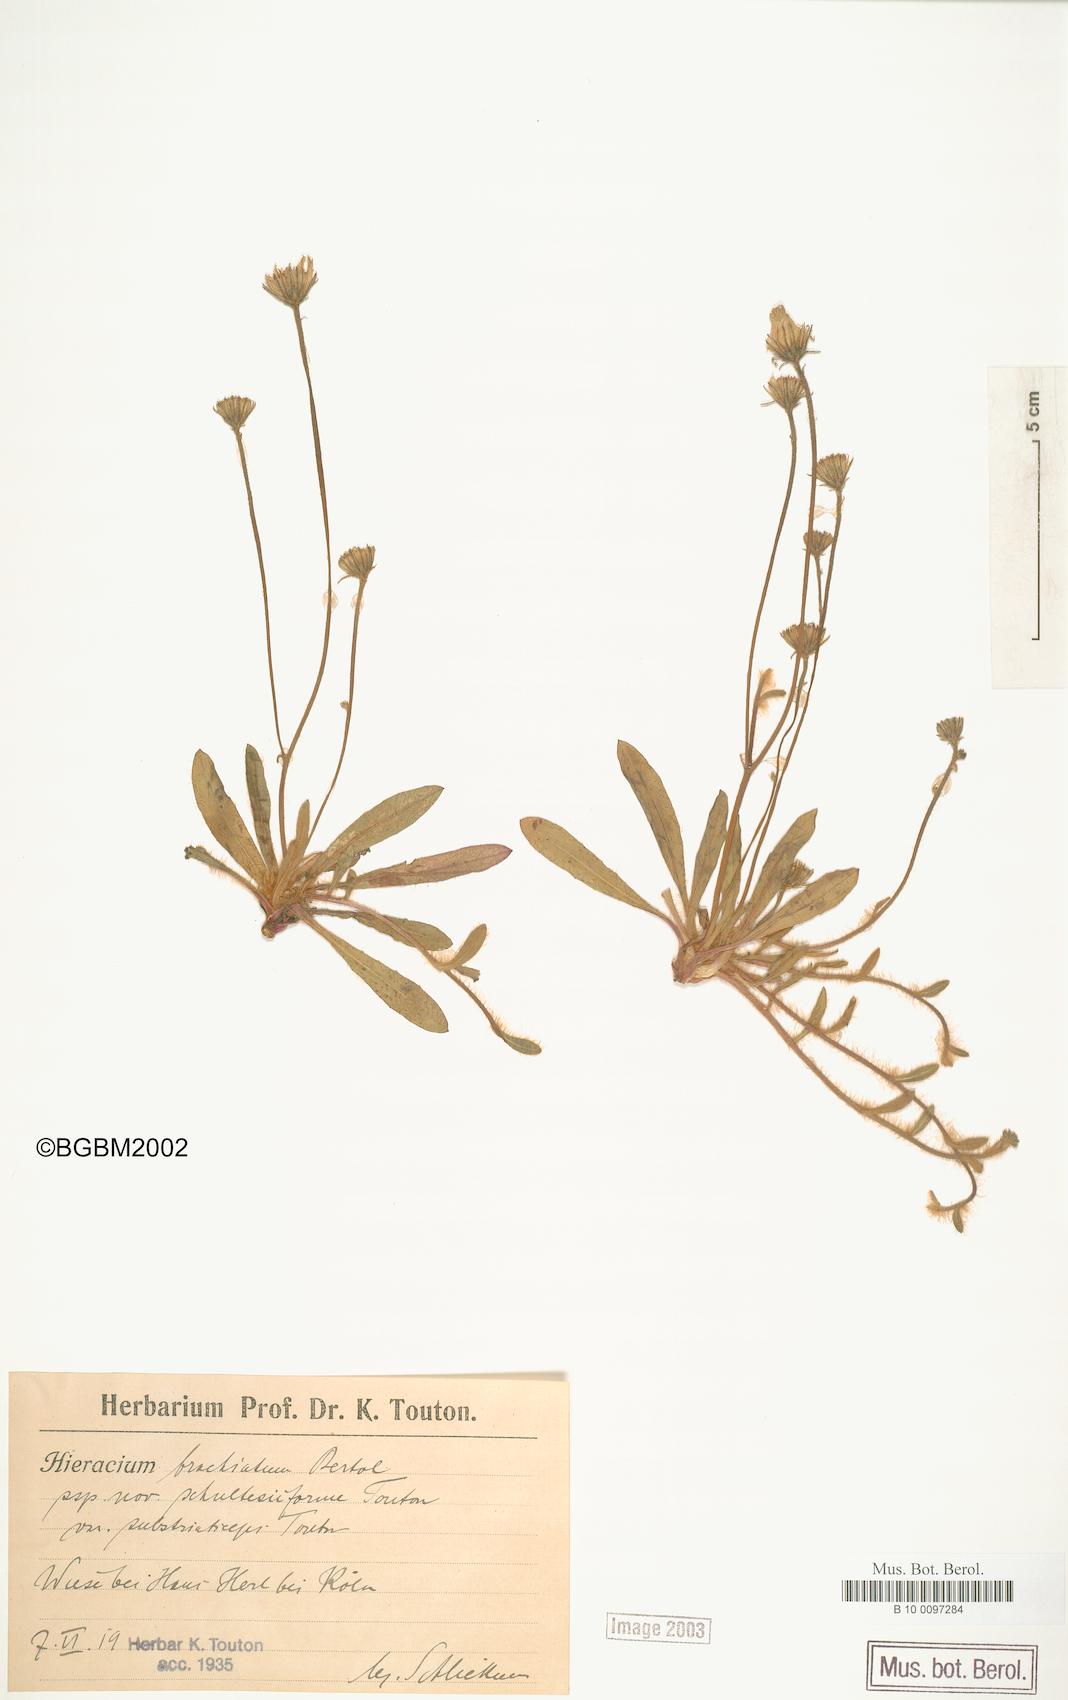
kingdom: Plantae
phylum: Tracheophyta
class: Magnoliopsida
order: Asterales
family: Asteraceae
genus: Pilosella
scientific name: Pilosella acutifolia
